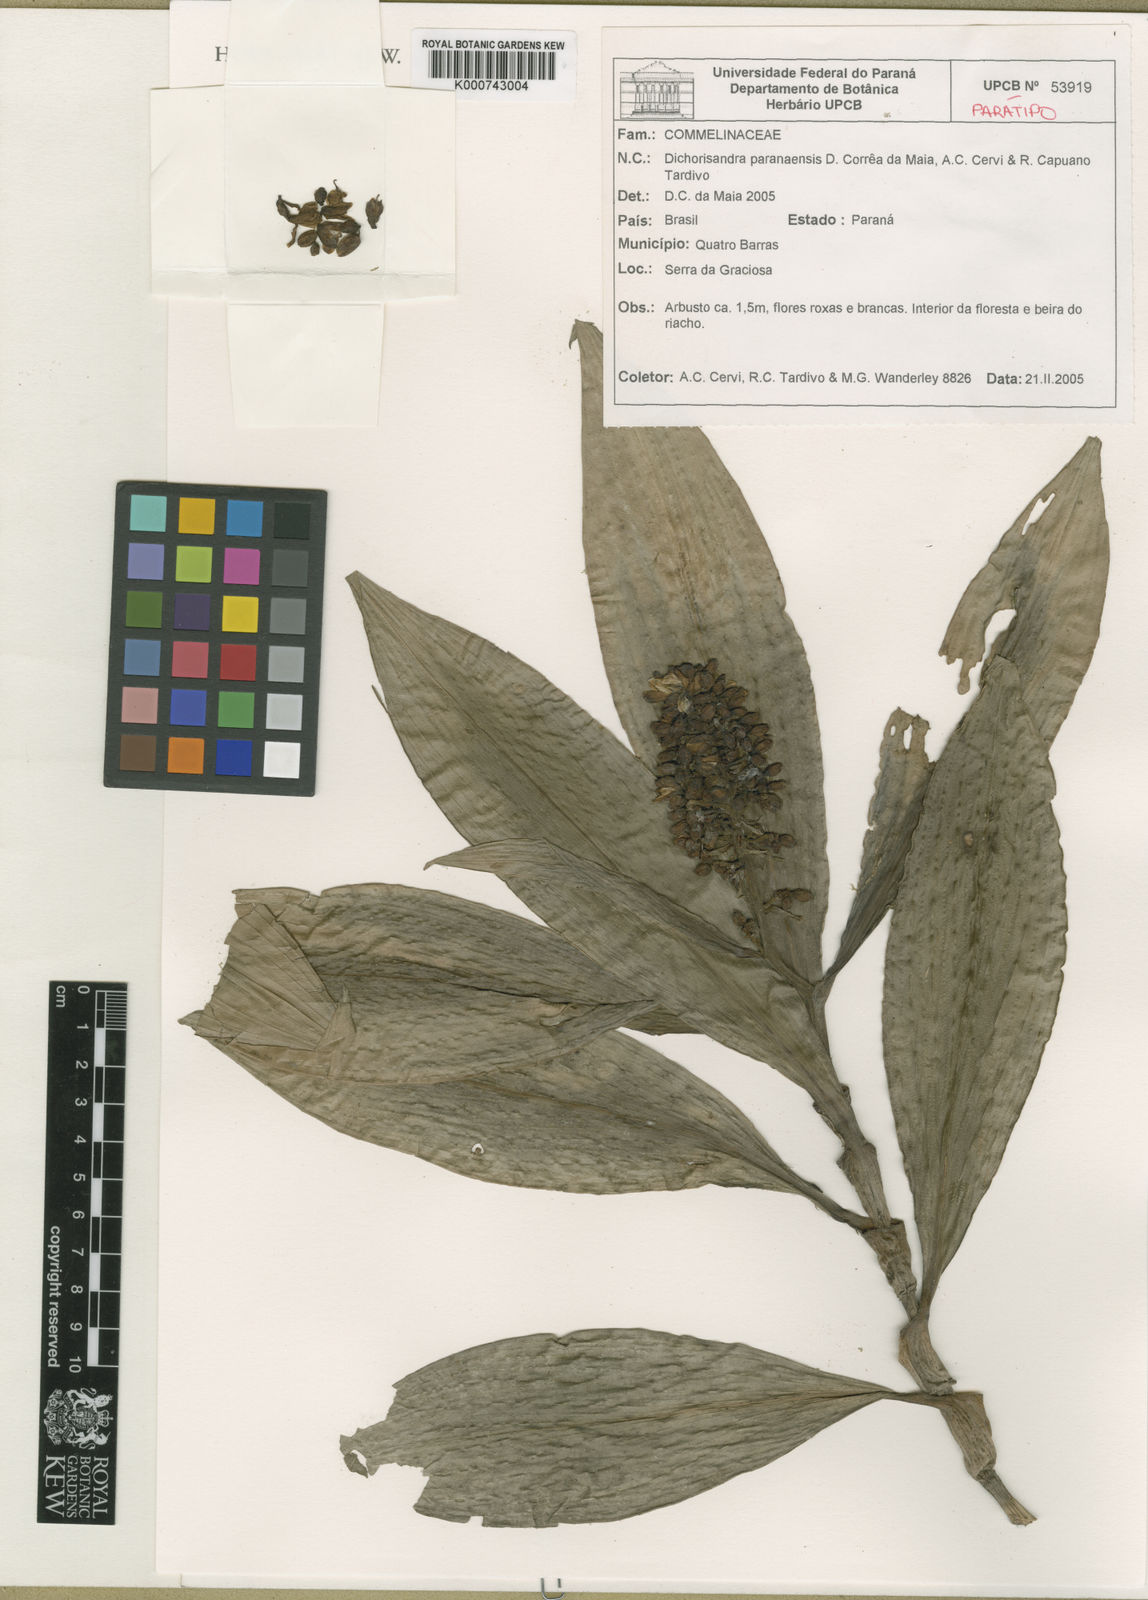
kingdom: Plantae
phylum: Tracheophyta
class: Liliopsida
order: Commelinales
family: Commelinaceae
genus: Dichorisandra
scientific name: Dichorisandra paranaensis
